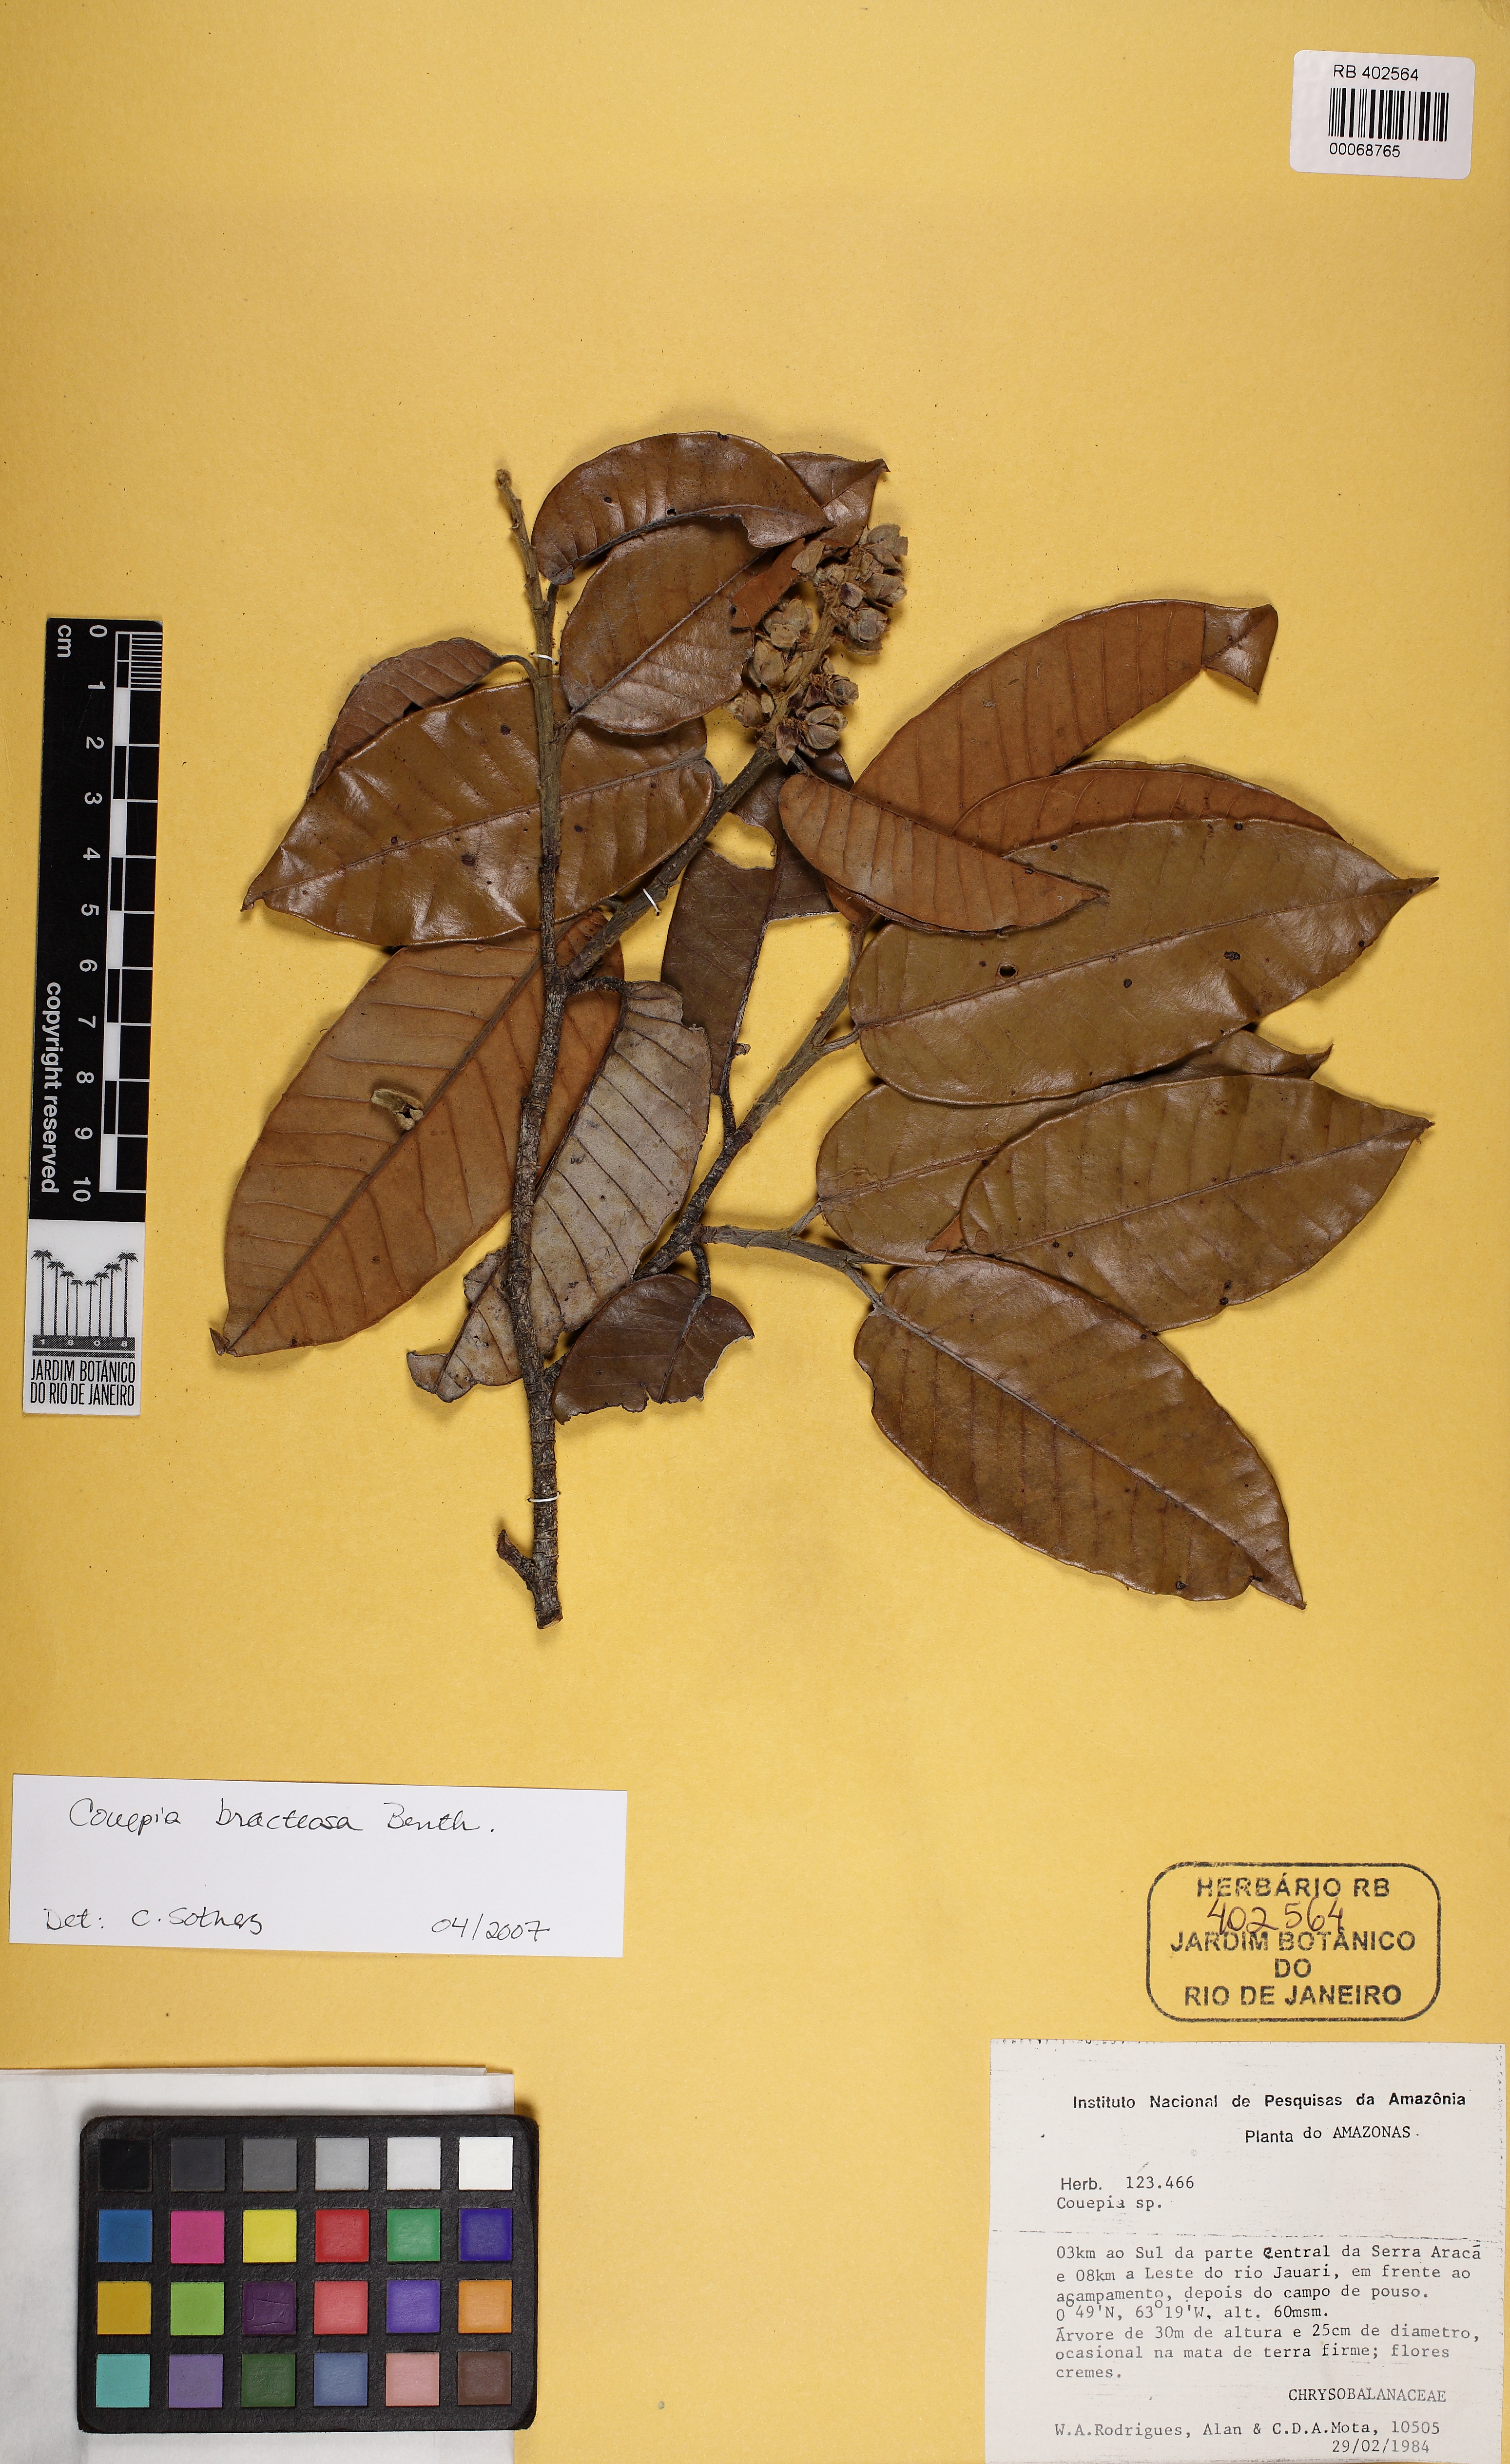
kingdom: Plantae
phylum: Tracheophyta
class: Magnoliopsida
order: Malpighiales
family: Chrysobalanaceae
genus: Couepia
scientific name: Couepia
